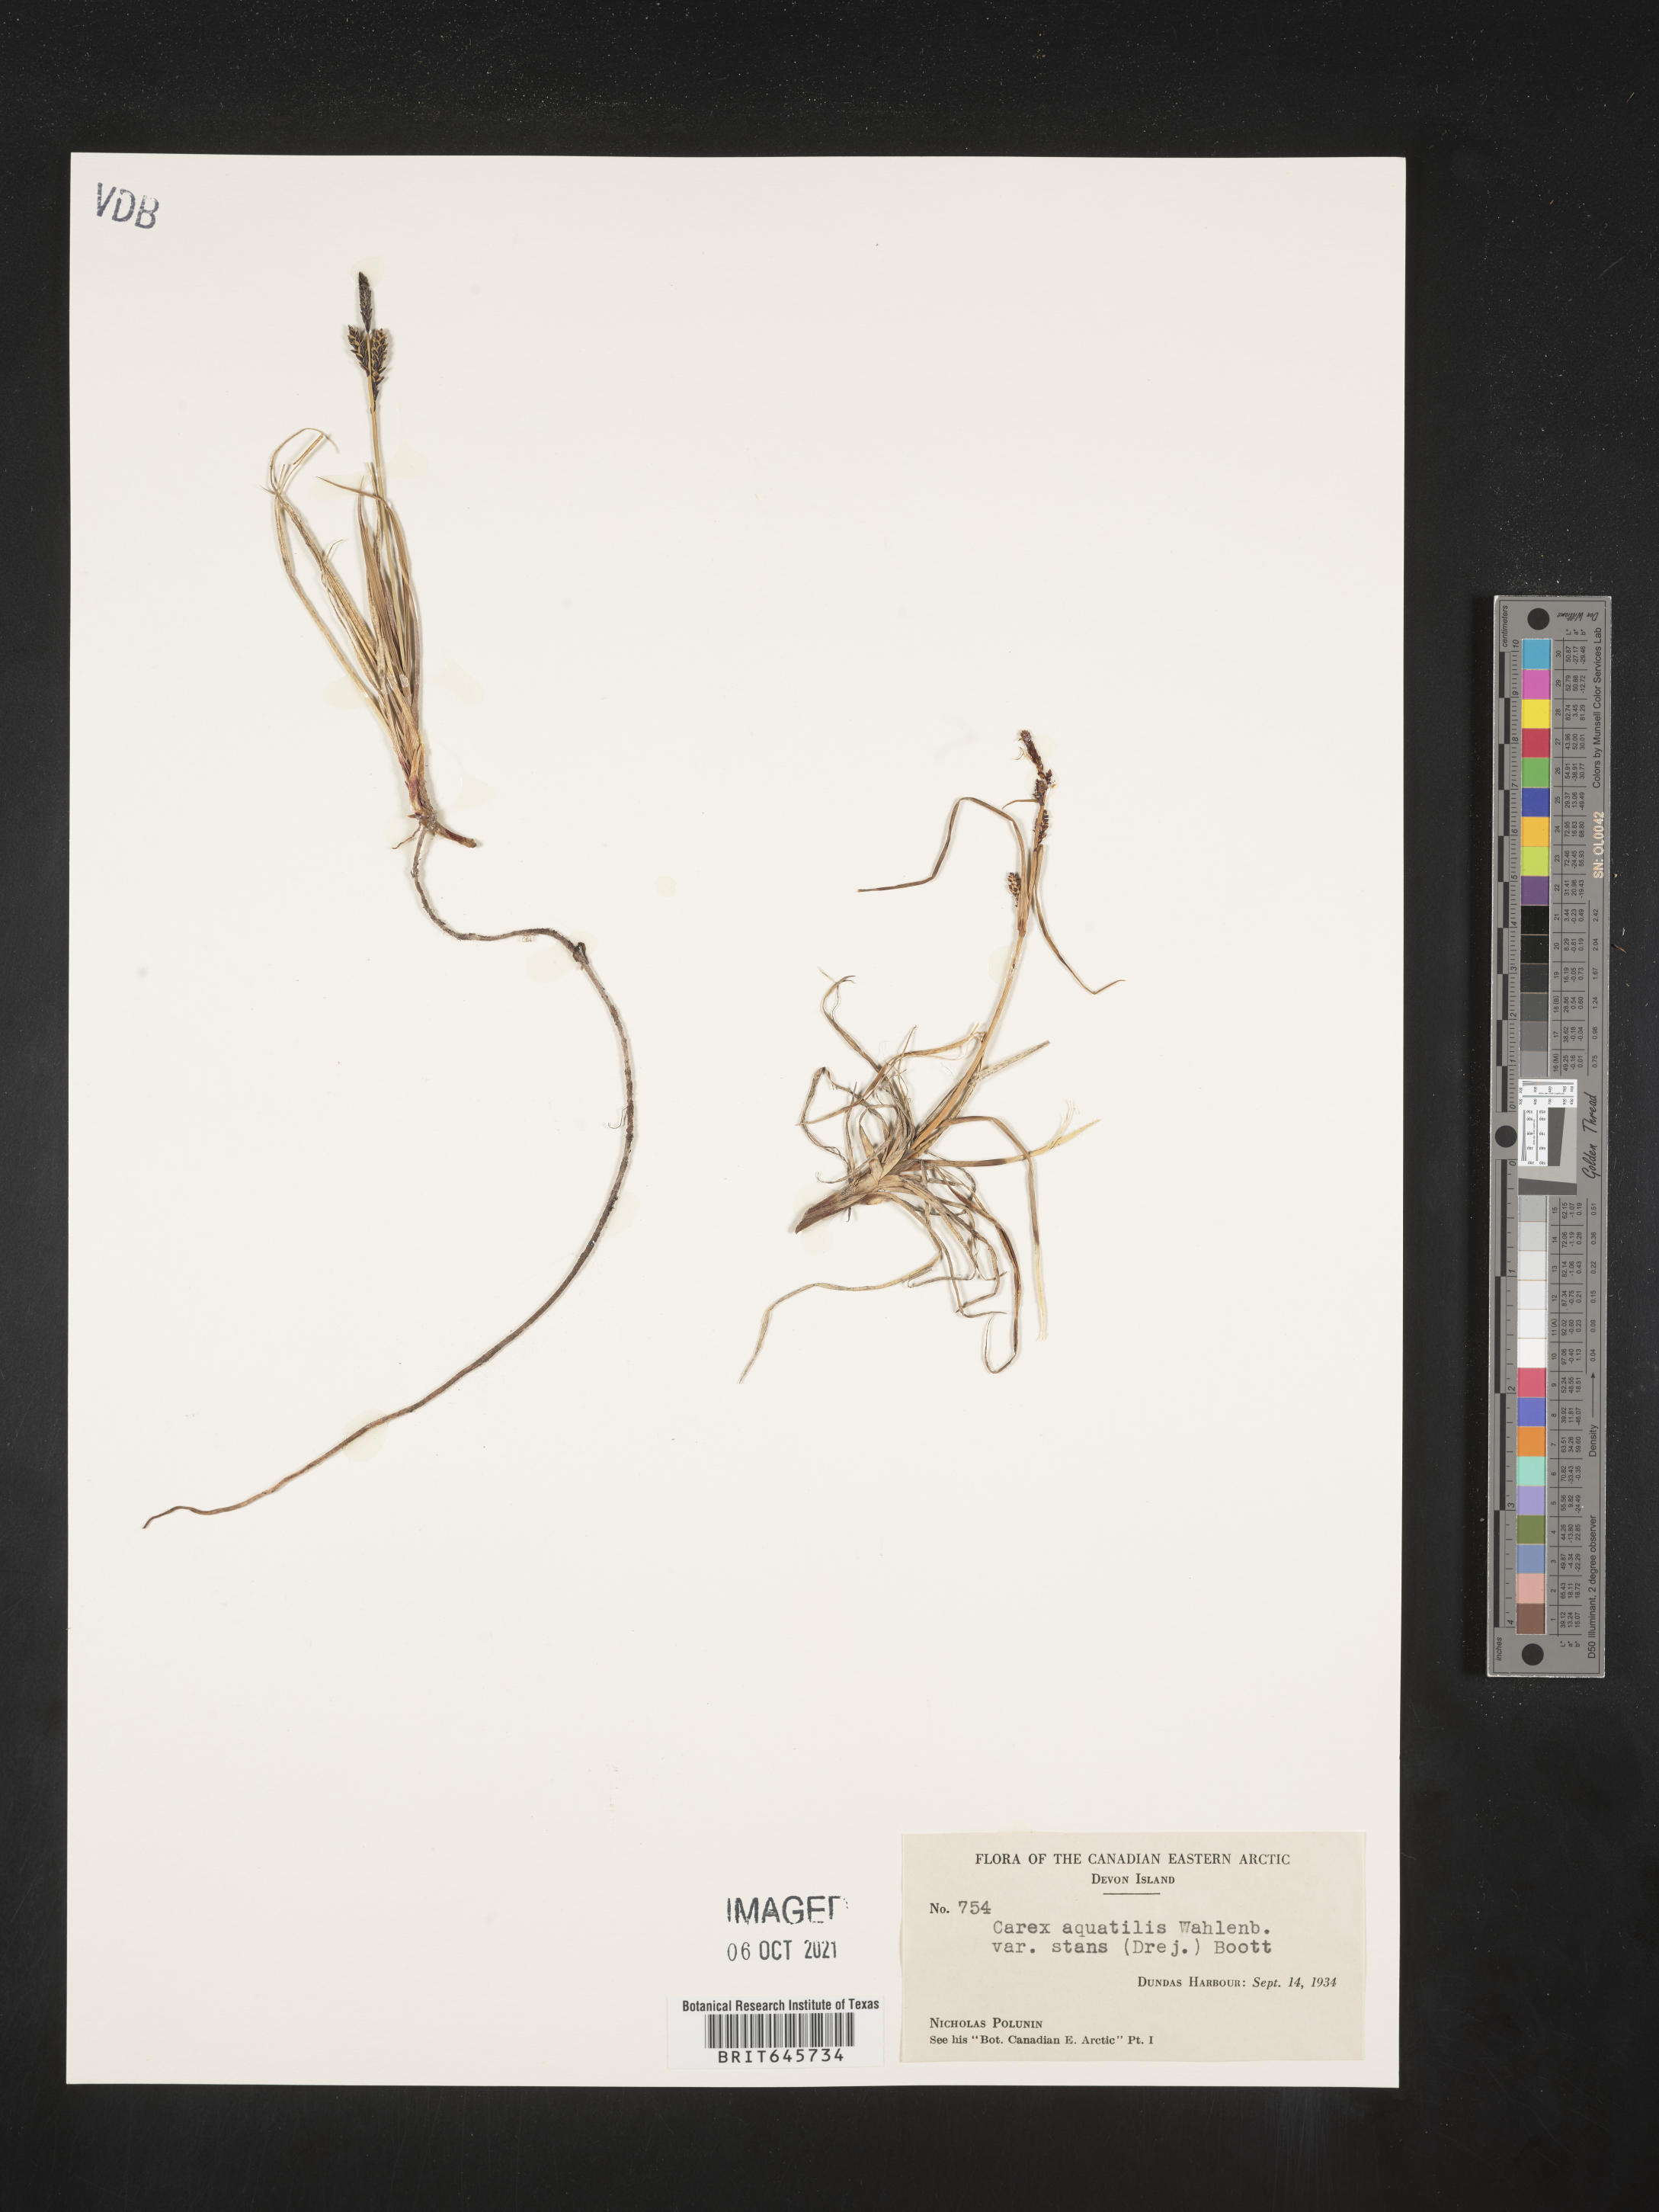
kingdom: Plantae
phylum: Tracheophyta
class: Liliopsida
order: Poales
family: Cyperaceae
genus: Carex
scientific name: Carex aquatilis
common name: Water sedge
